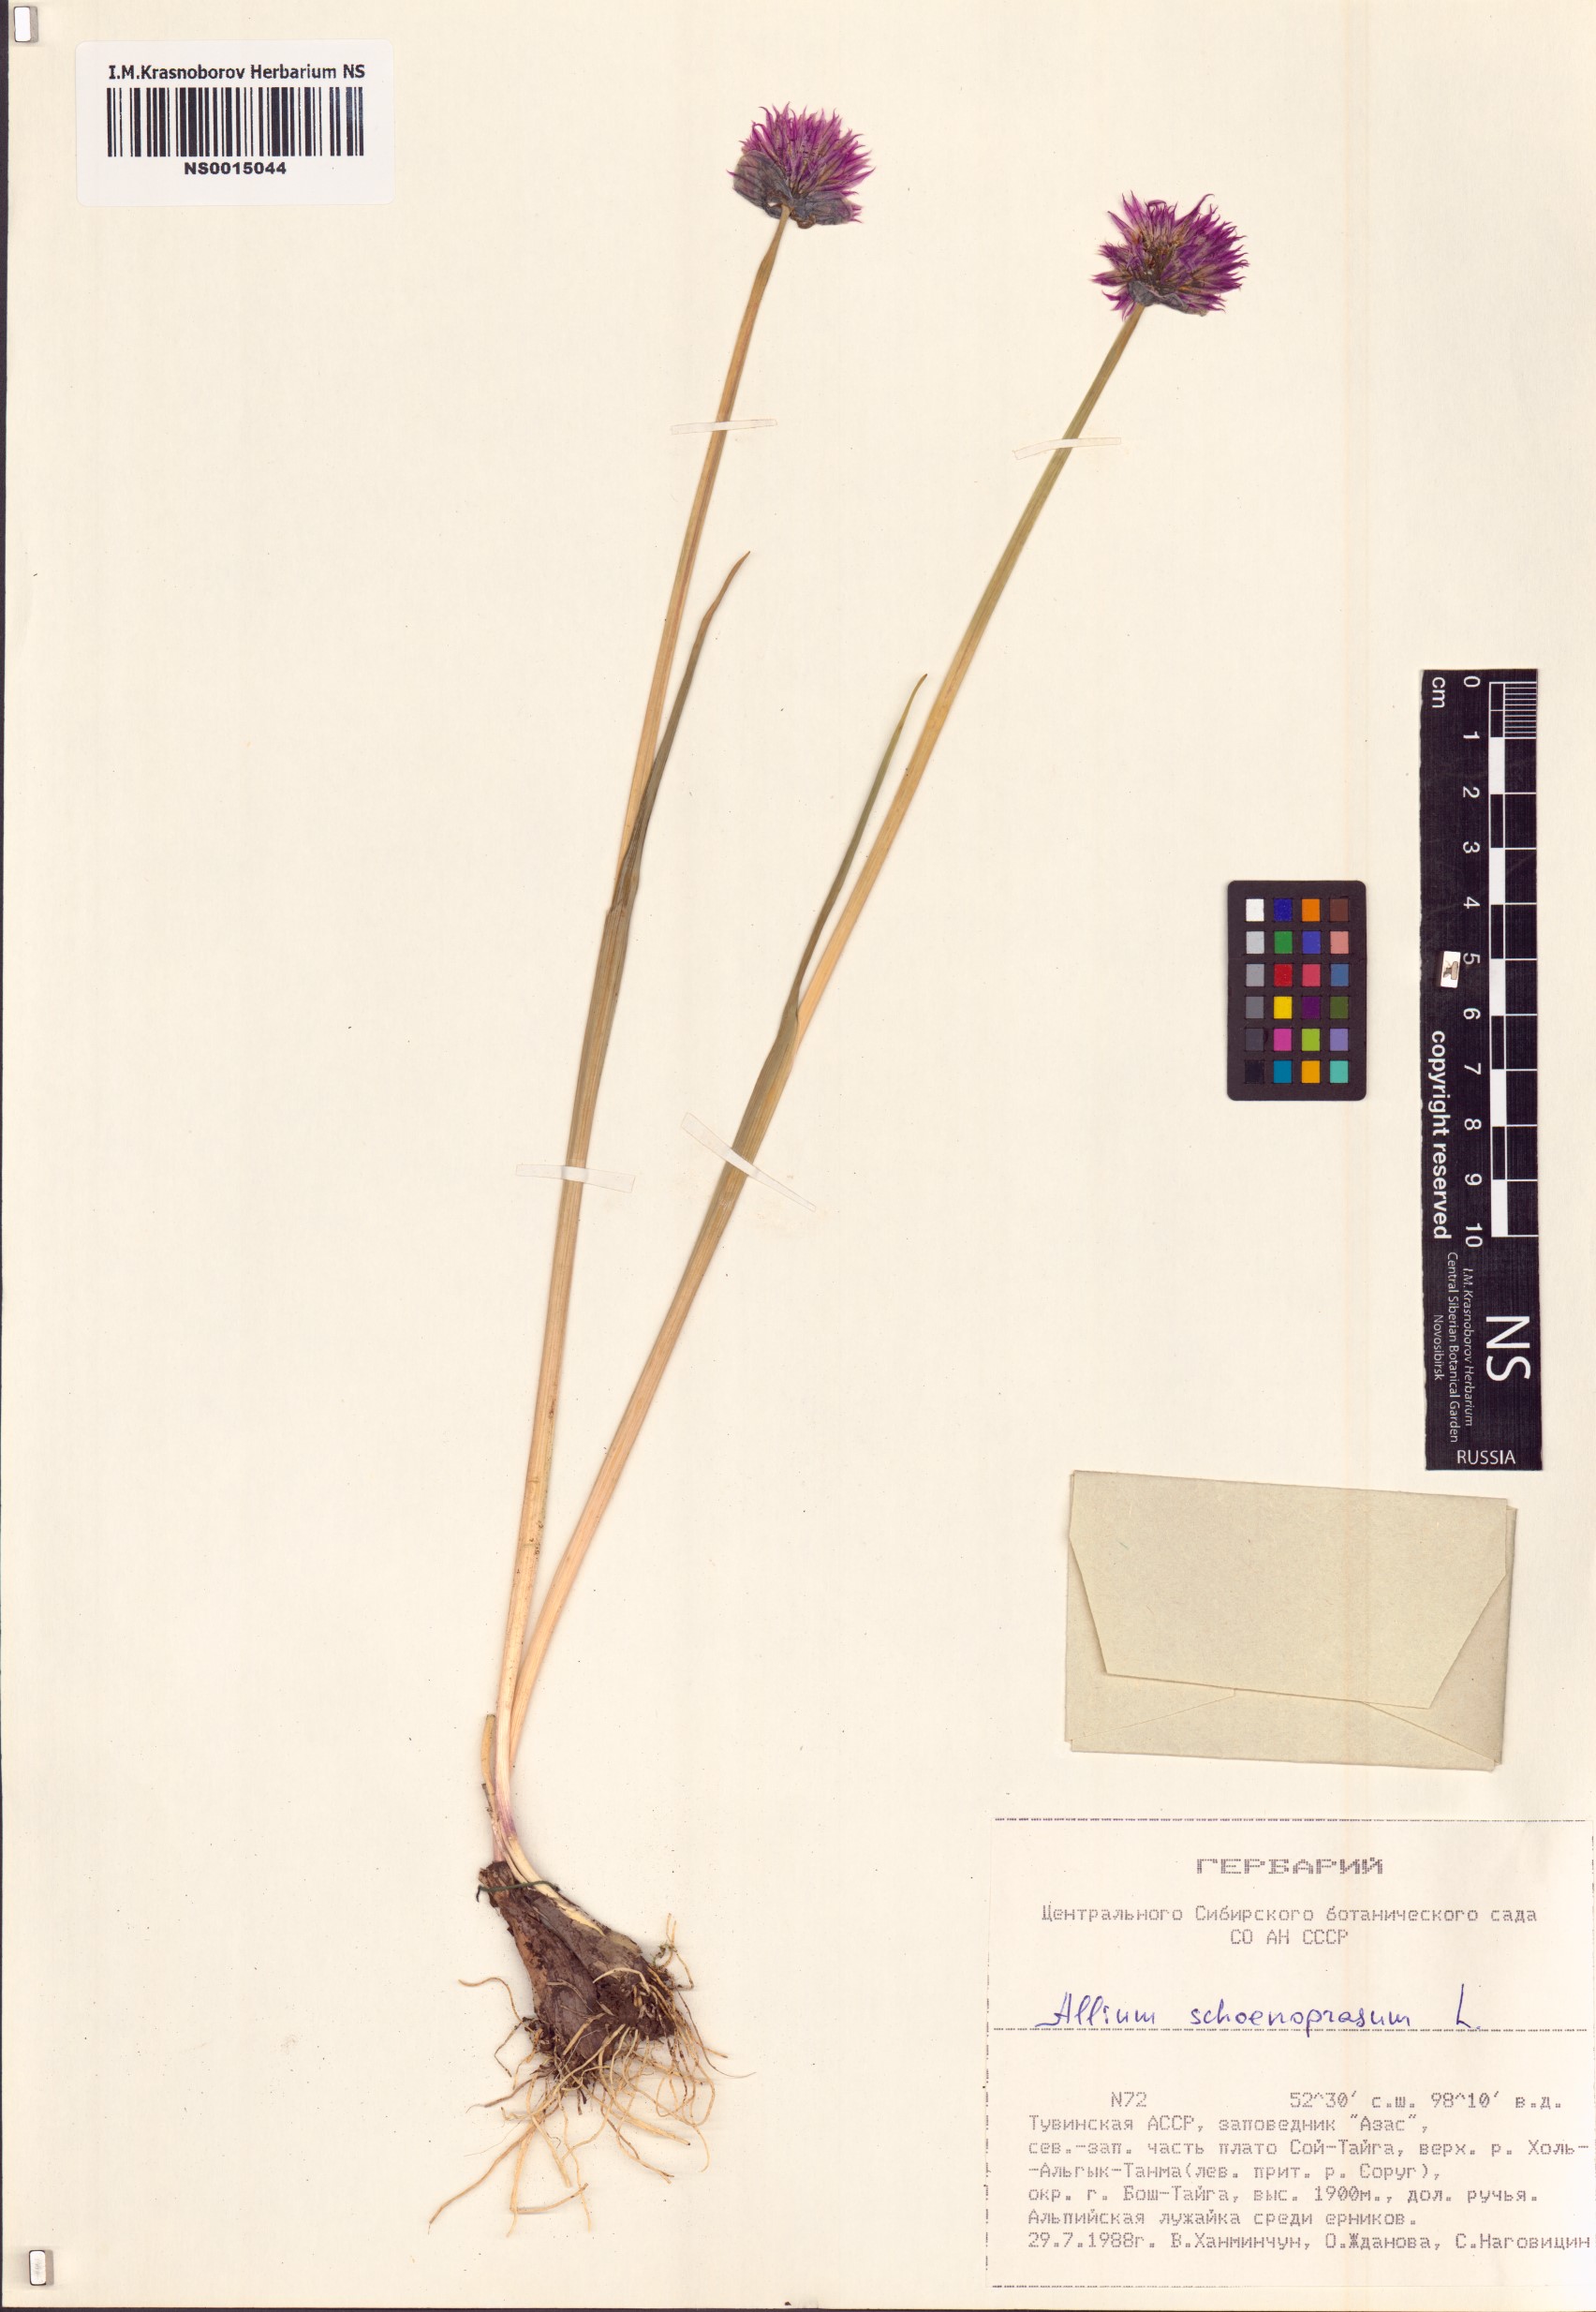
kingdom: Plantae
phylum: Tracheophyta
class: Liliopsida
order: Asparagales
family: Amaryllidaceae
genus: Allium
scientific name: Allium schoenoprasum
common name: Chives
